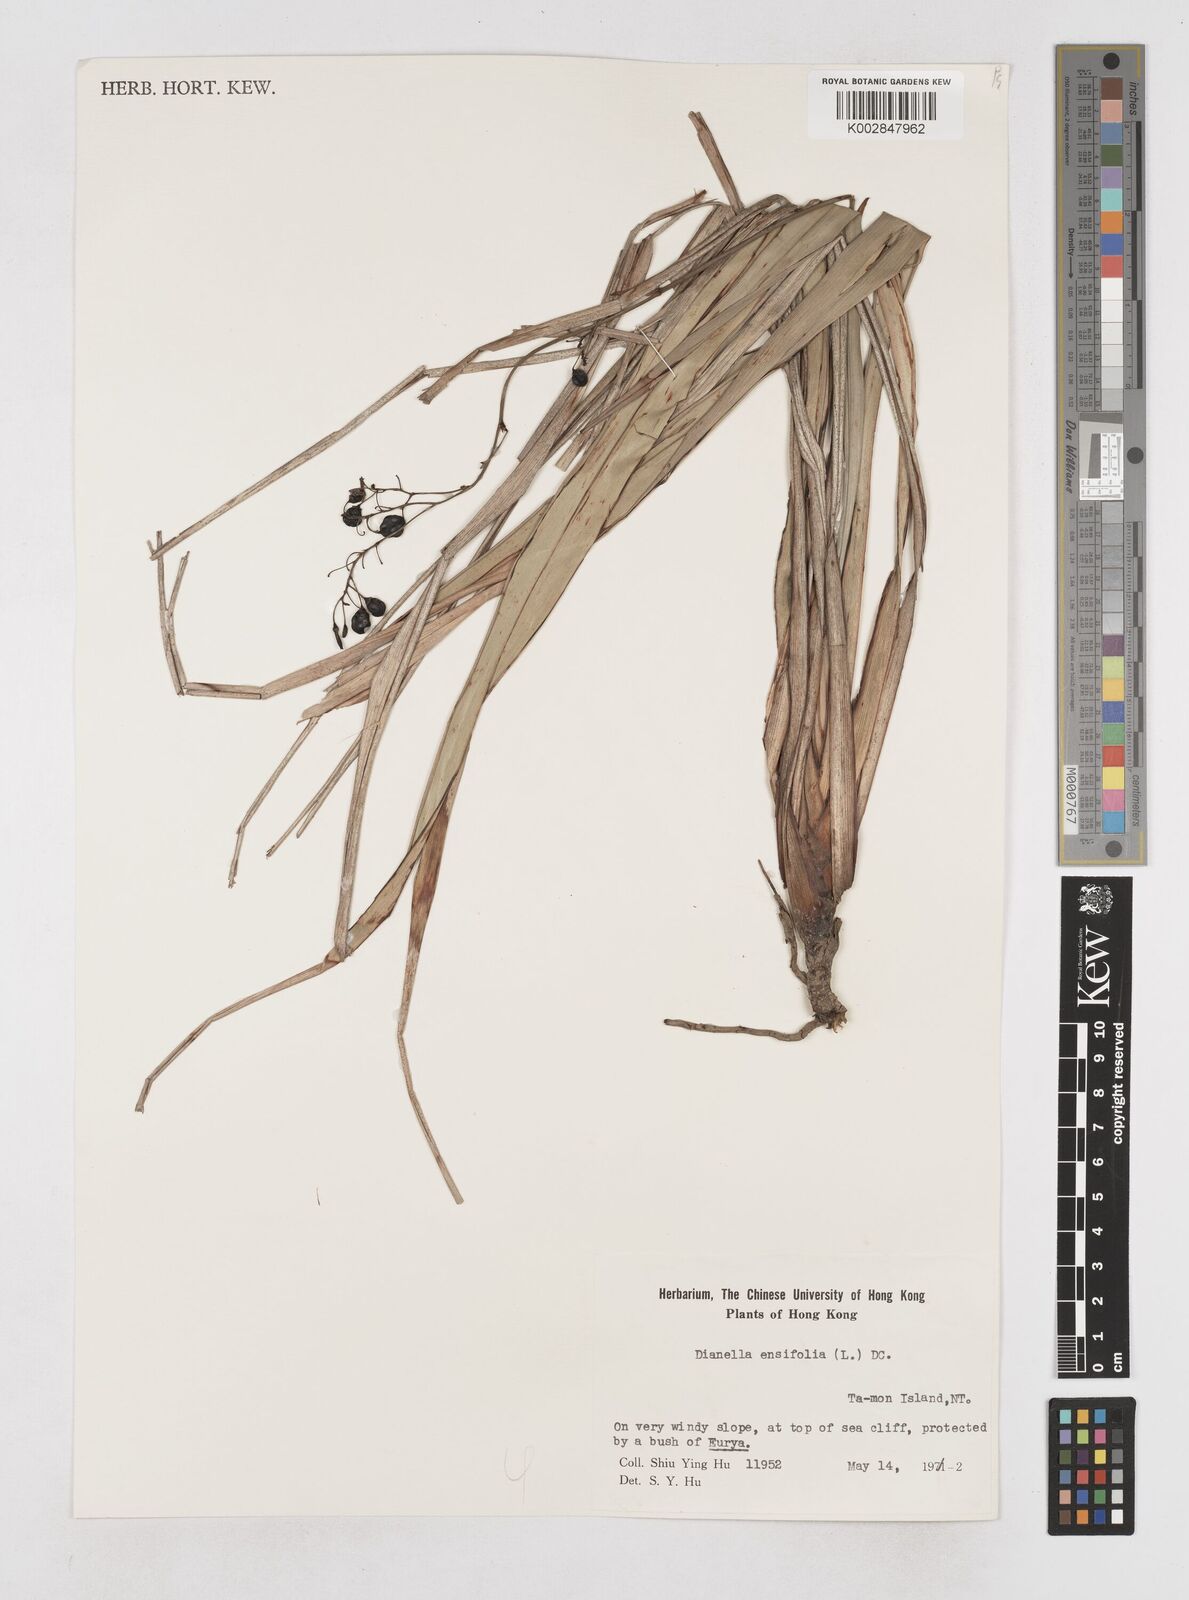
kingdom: Plantae
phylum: Tracheophyta
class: Liliopsida
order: Asparagales
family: Asphodelaceae
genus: Dianella
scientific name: Dianella ensifolia
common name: New zealand lilyplant
